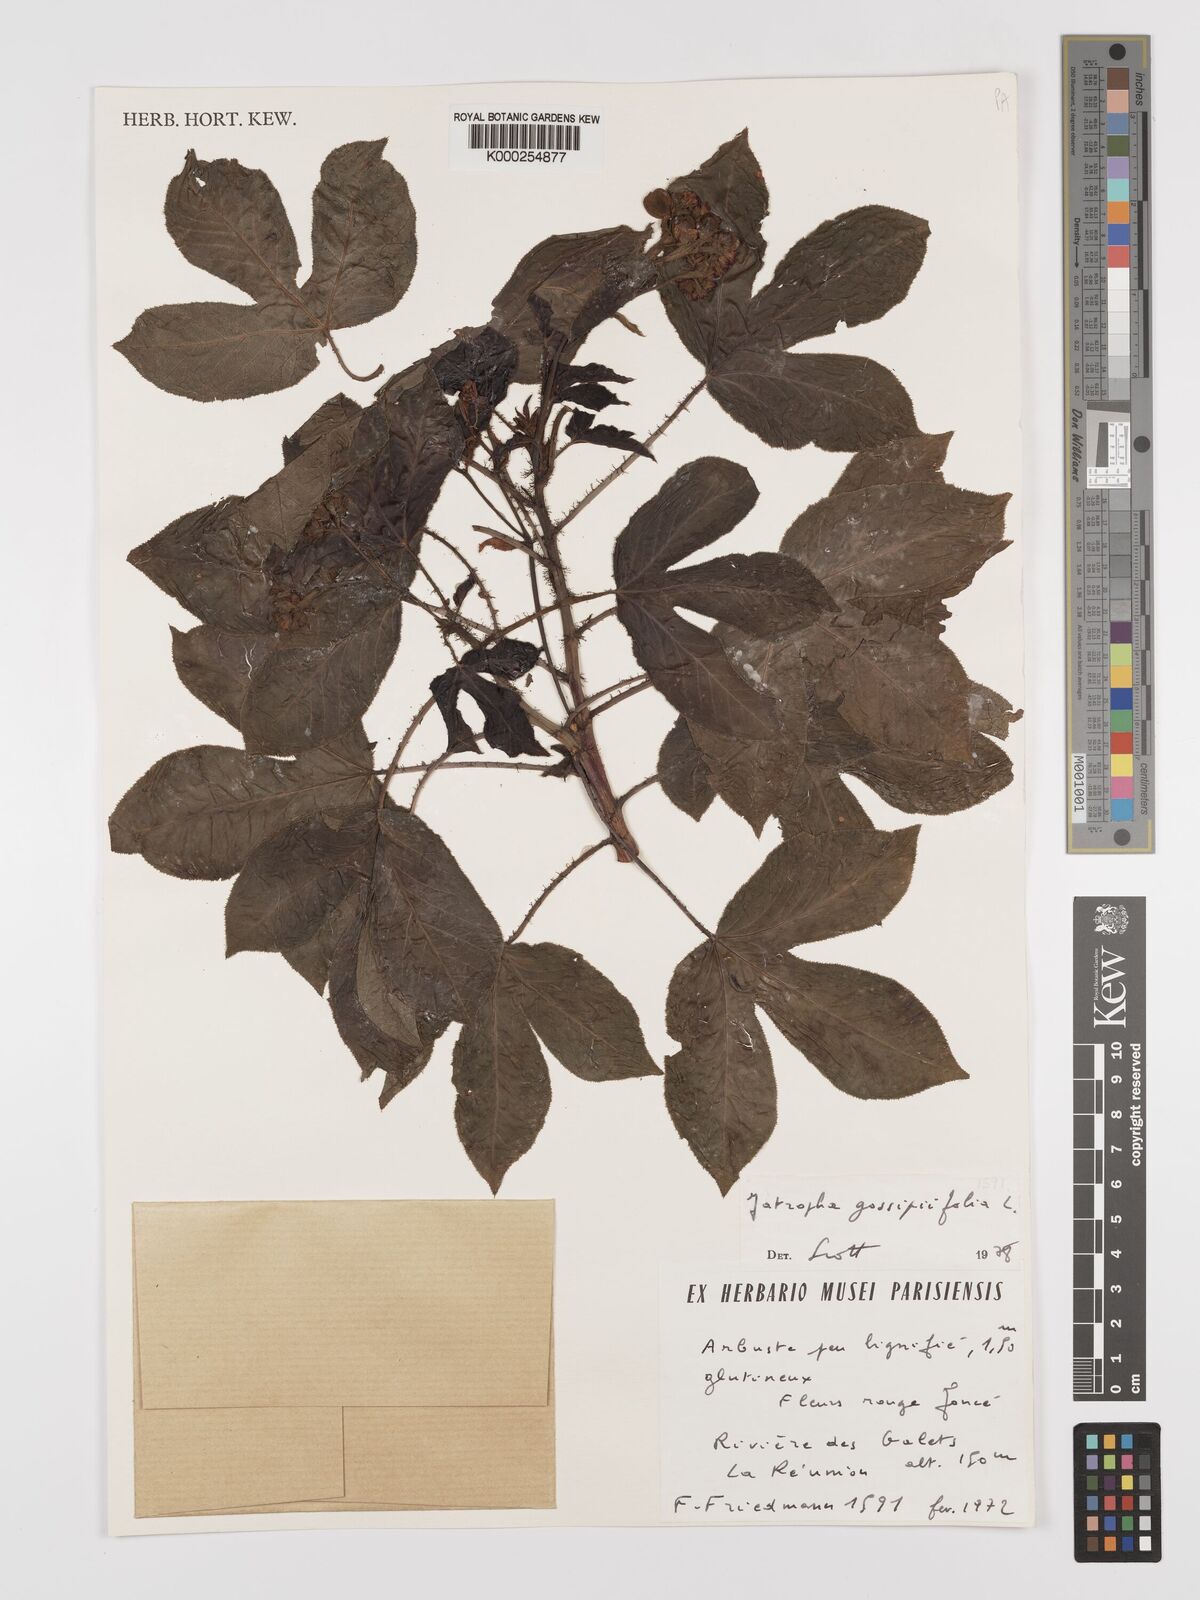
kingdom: Plantae
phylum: Tracheophyta
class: Magnoliopsida
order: Malpighiales
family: Euphorbiaceae
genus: Jatropha
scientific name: Jatropha gossypiifolia
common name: Bellyache bush
